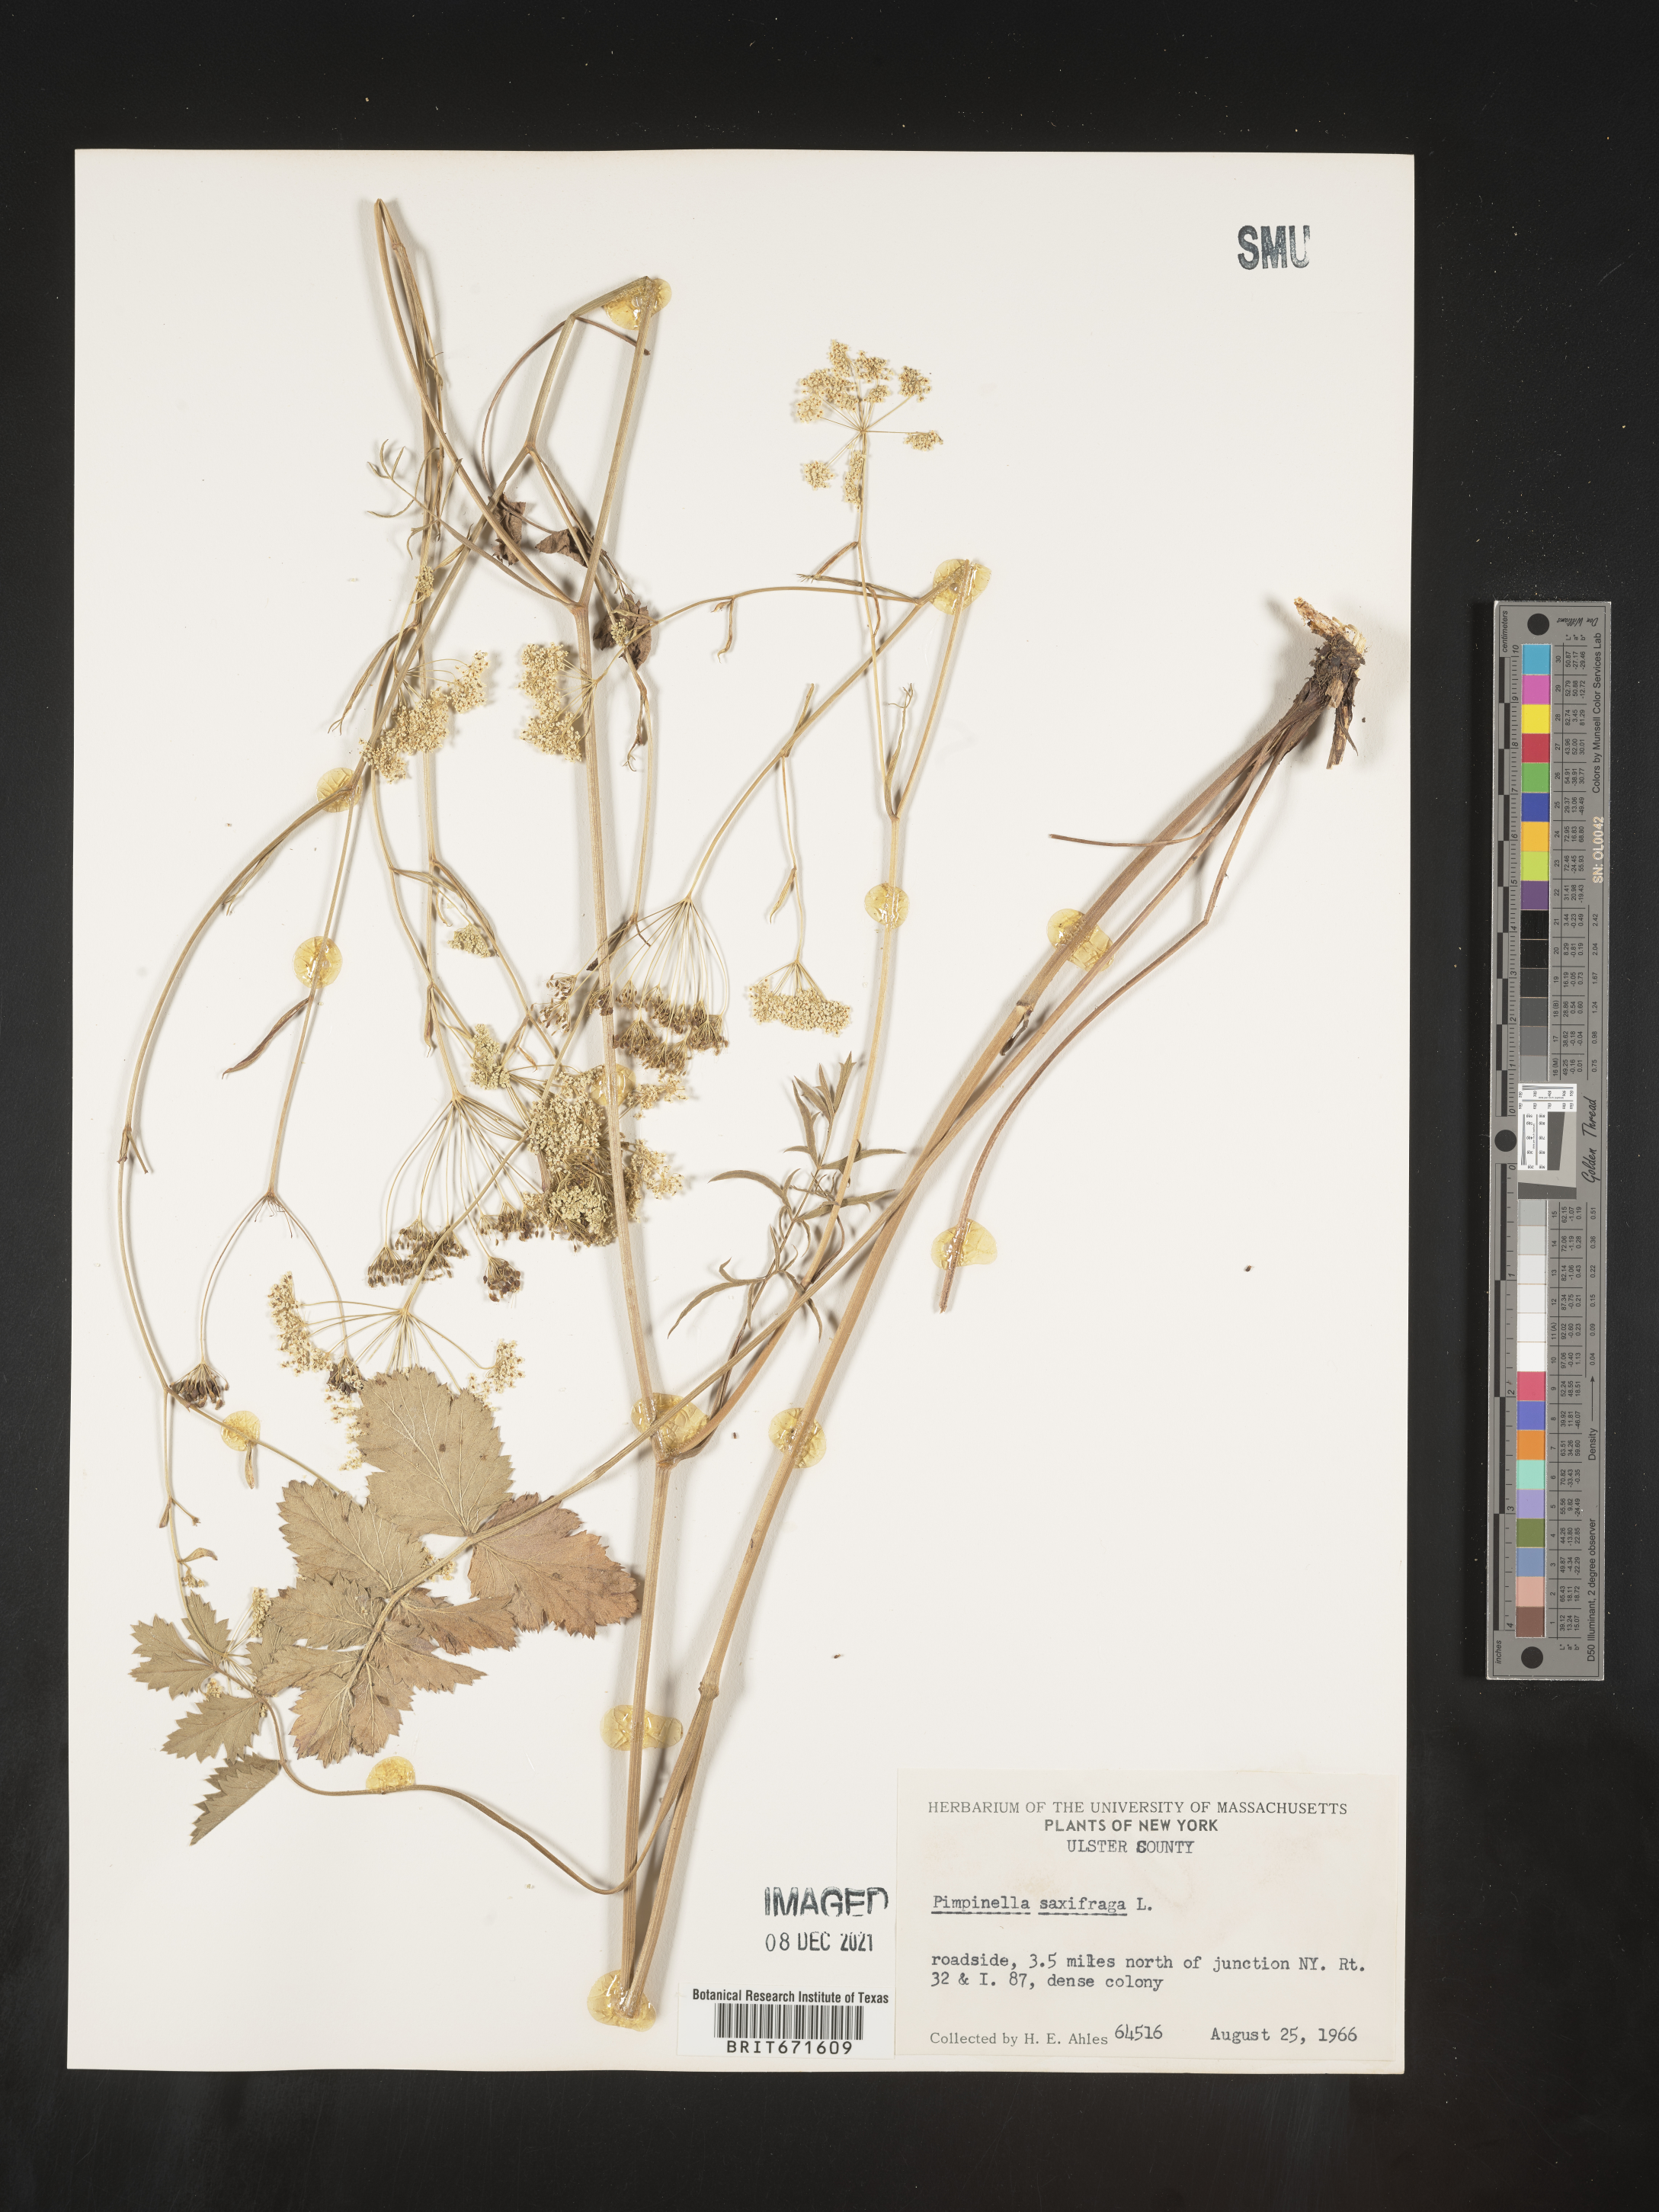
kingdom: Plantae
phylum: Tracheophyta
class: Magnoliopsida
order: Apiales
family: Apiaceae
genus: Pimpinella
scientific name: Pimpinella
